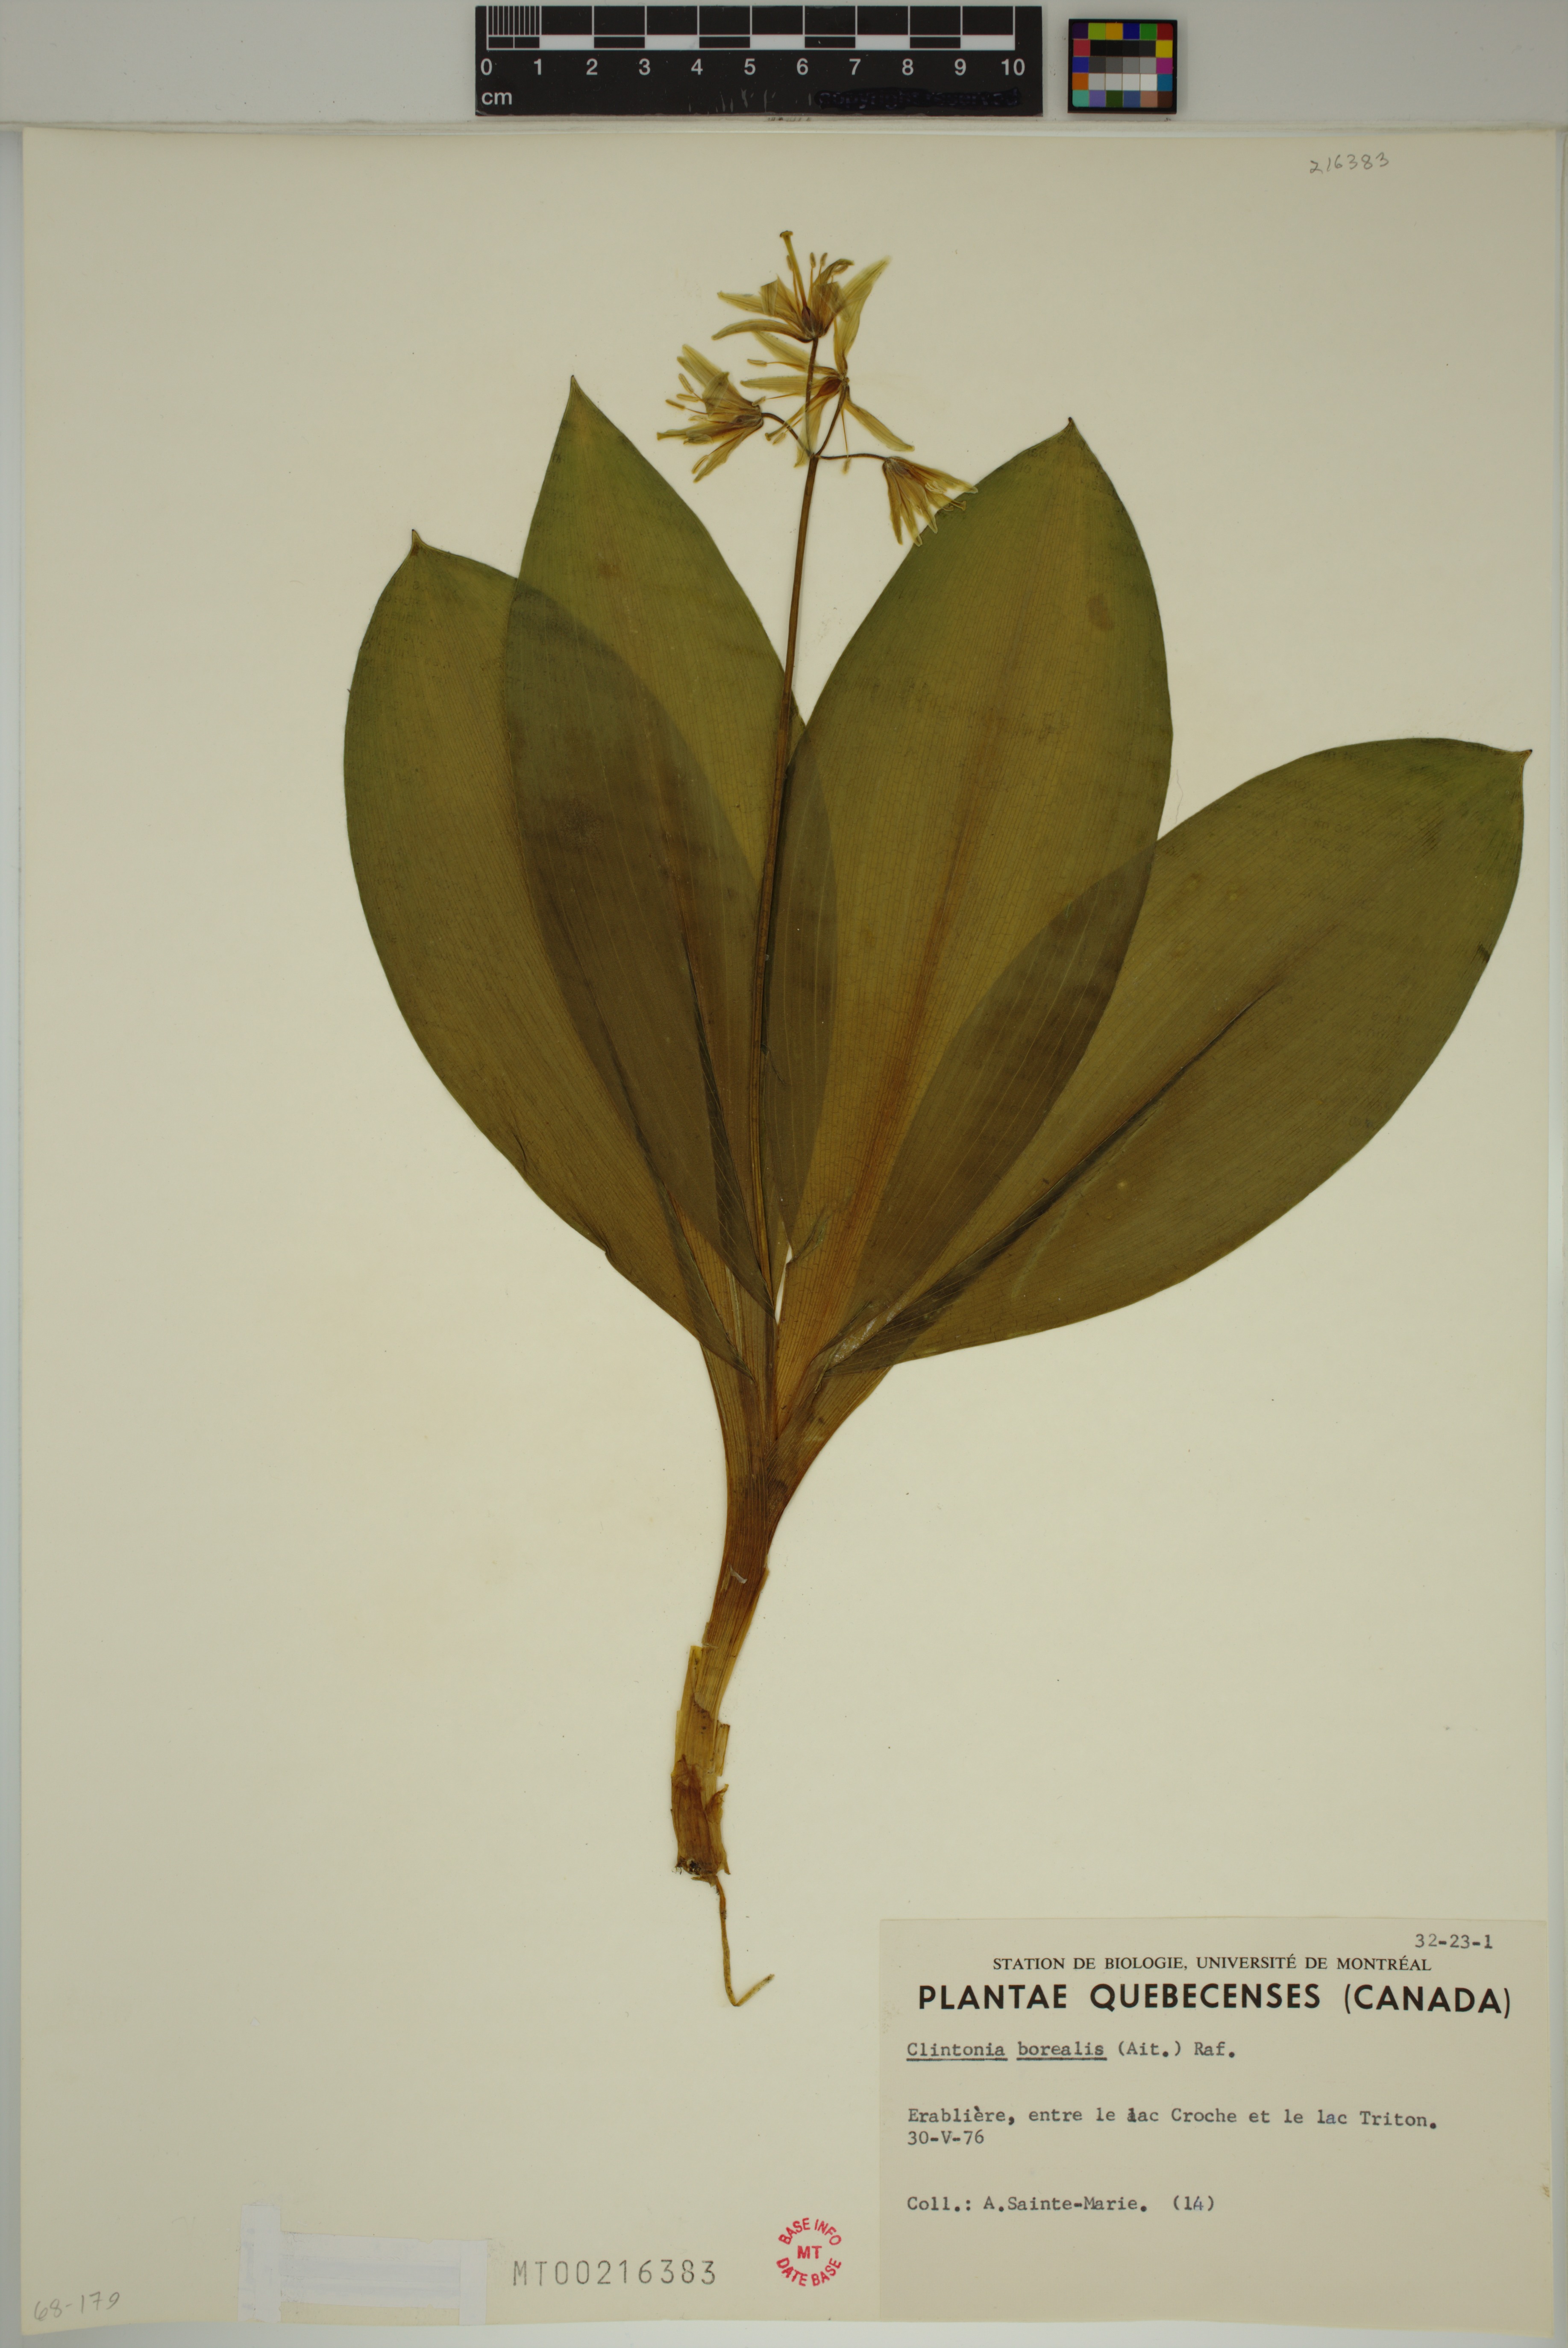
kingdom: Plantae
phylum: Tracheophyta
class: Liliopsida
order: Liliales
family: Liliaceae
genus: Clintonia
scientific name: Clintonia borealis
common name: Yellow clintonia
